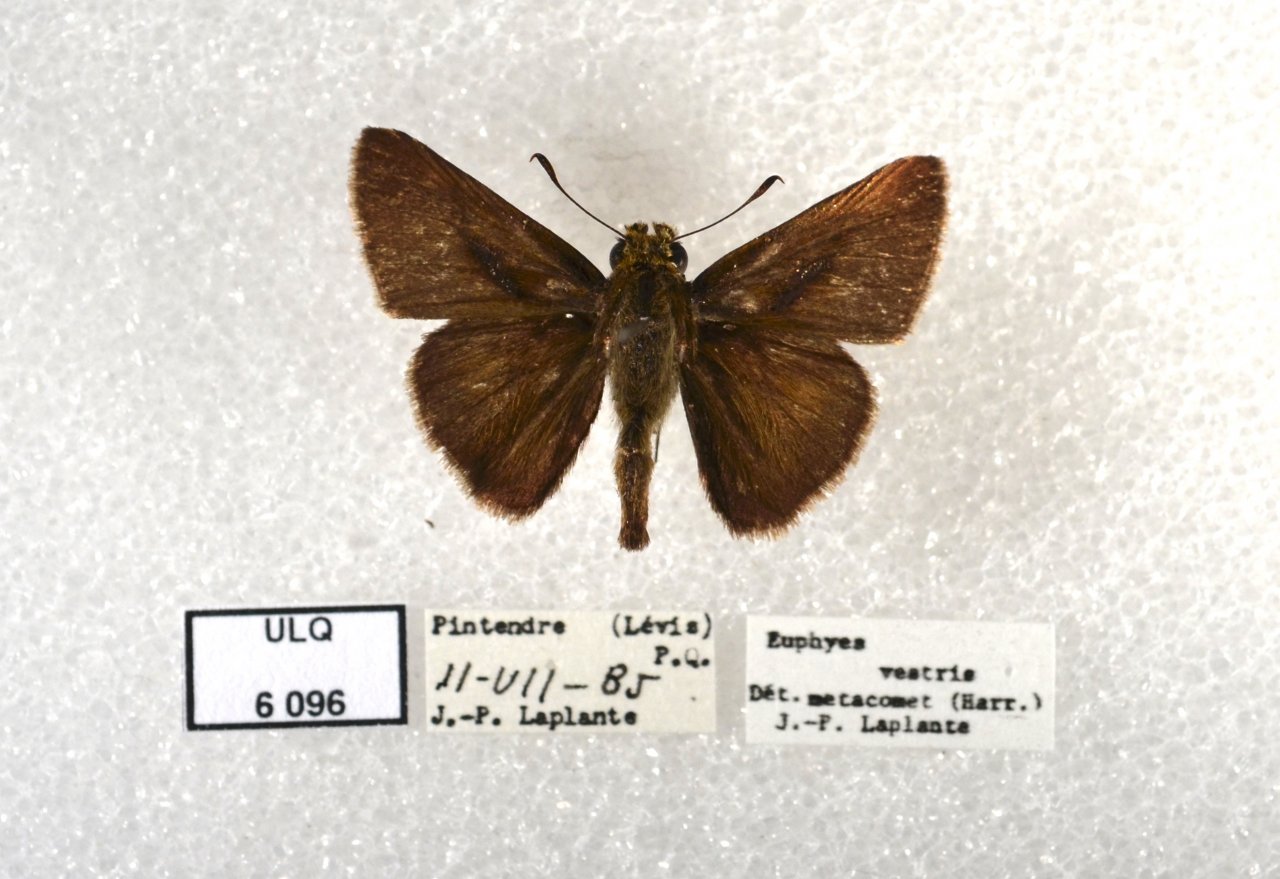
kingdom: Animalia
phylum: Arthropoda
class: Insecta
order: Lepidoptera
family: Hesperiidae
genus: Euphyes
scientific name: Euphyes vestris
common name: Dun Skipper
